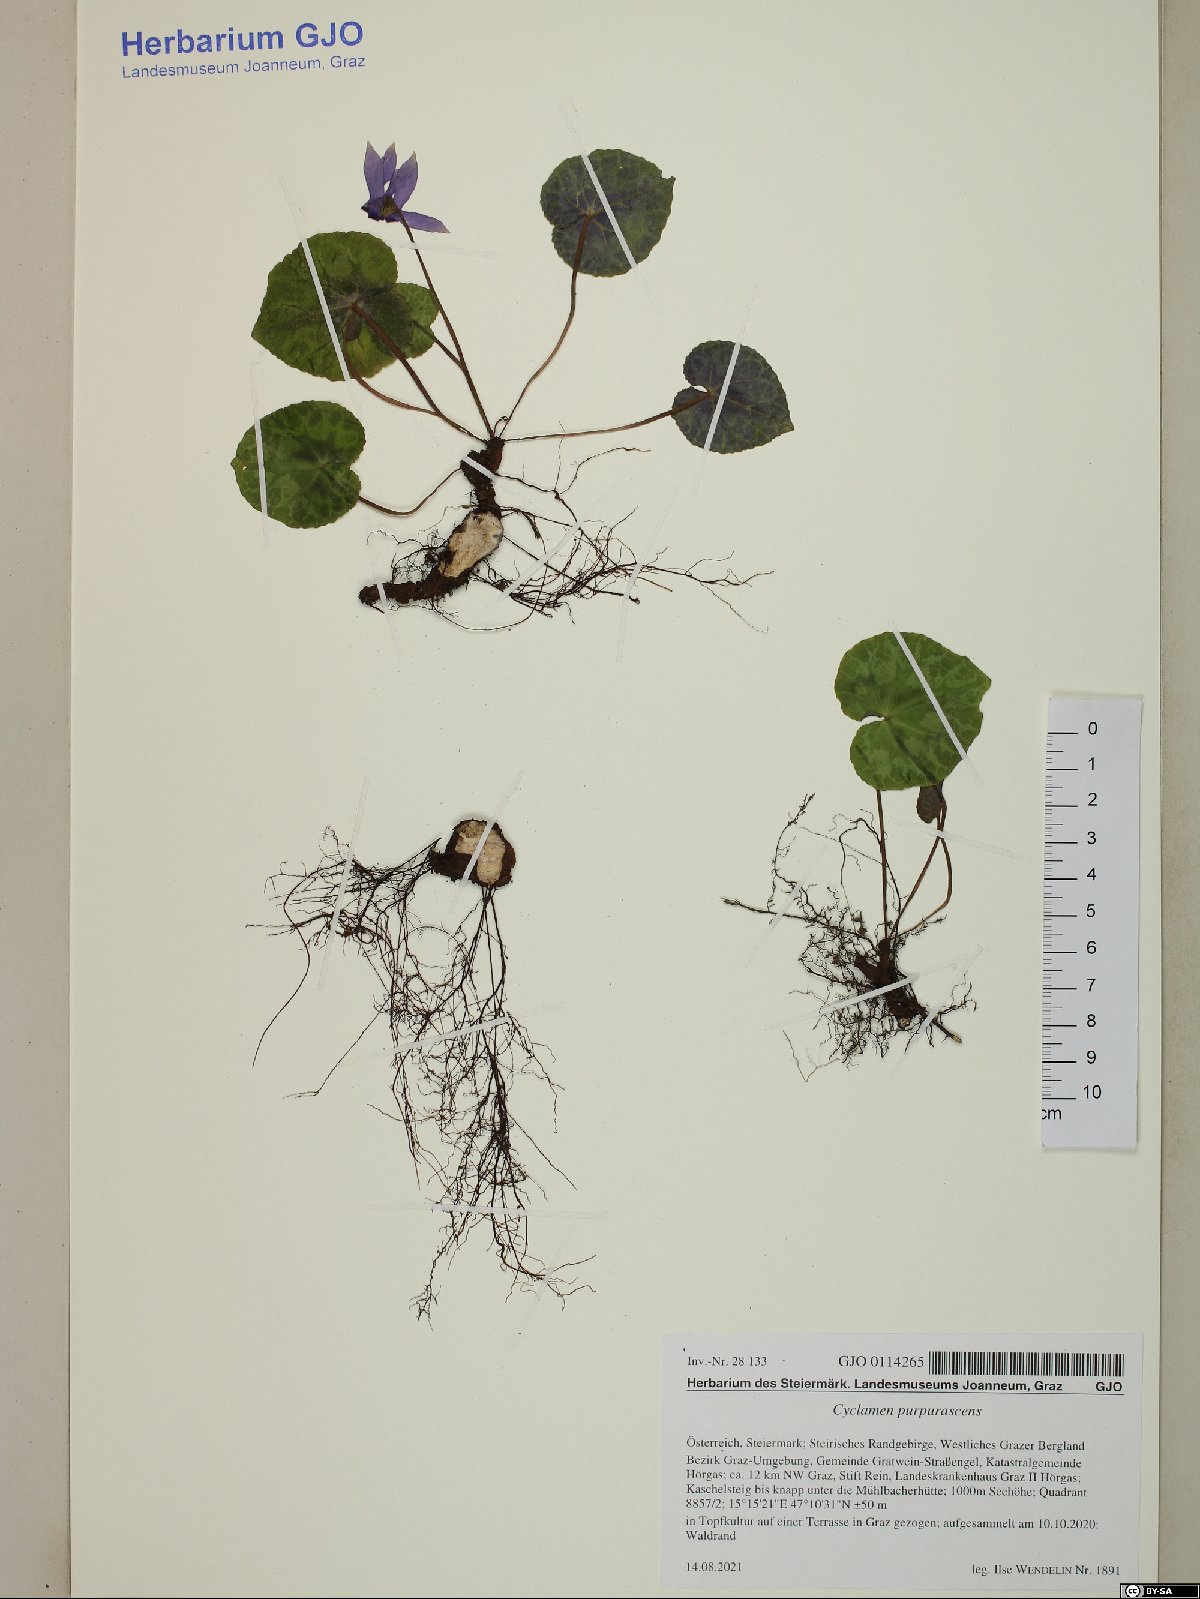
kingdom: Plantae
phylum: Tracheophyta
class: Magnoliopsida
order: Ericales
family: Primulaceae
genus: Cyclamen
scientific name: Cyclamen purpurascens
